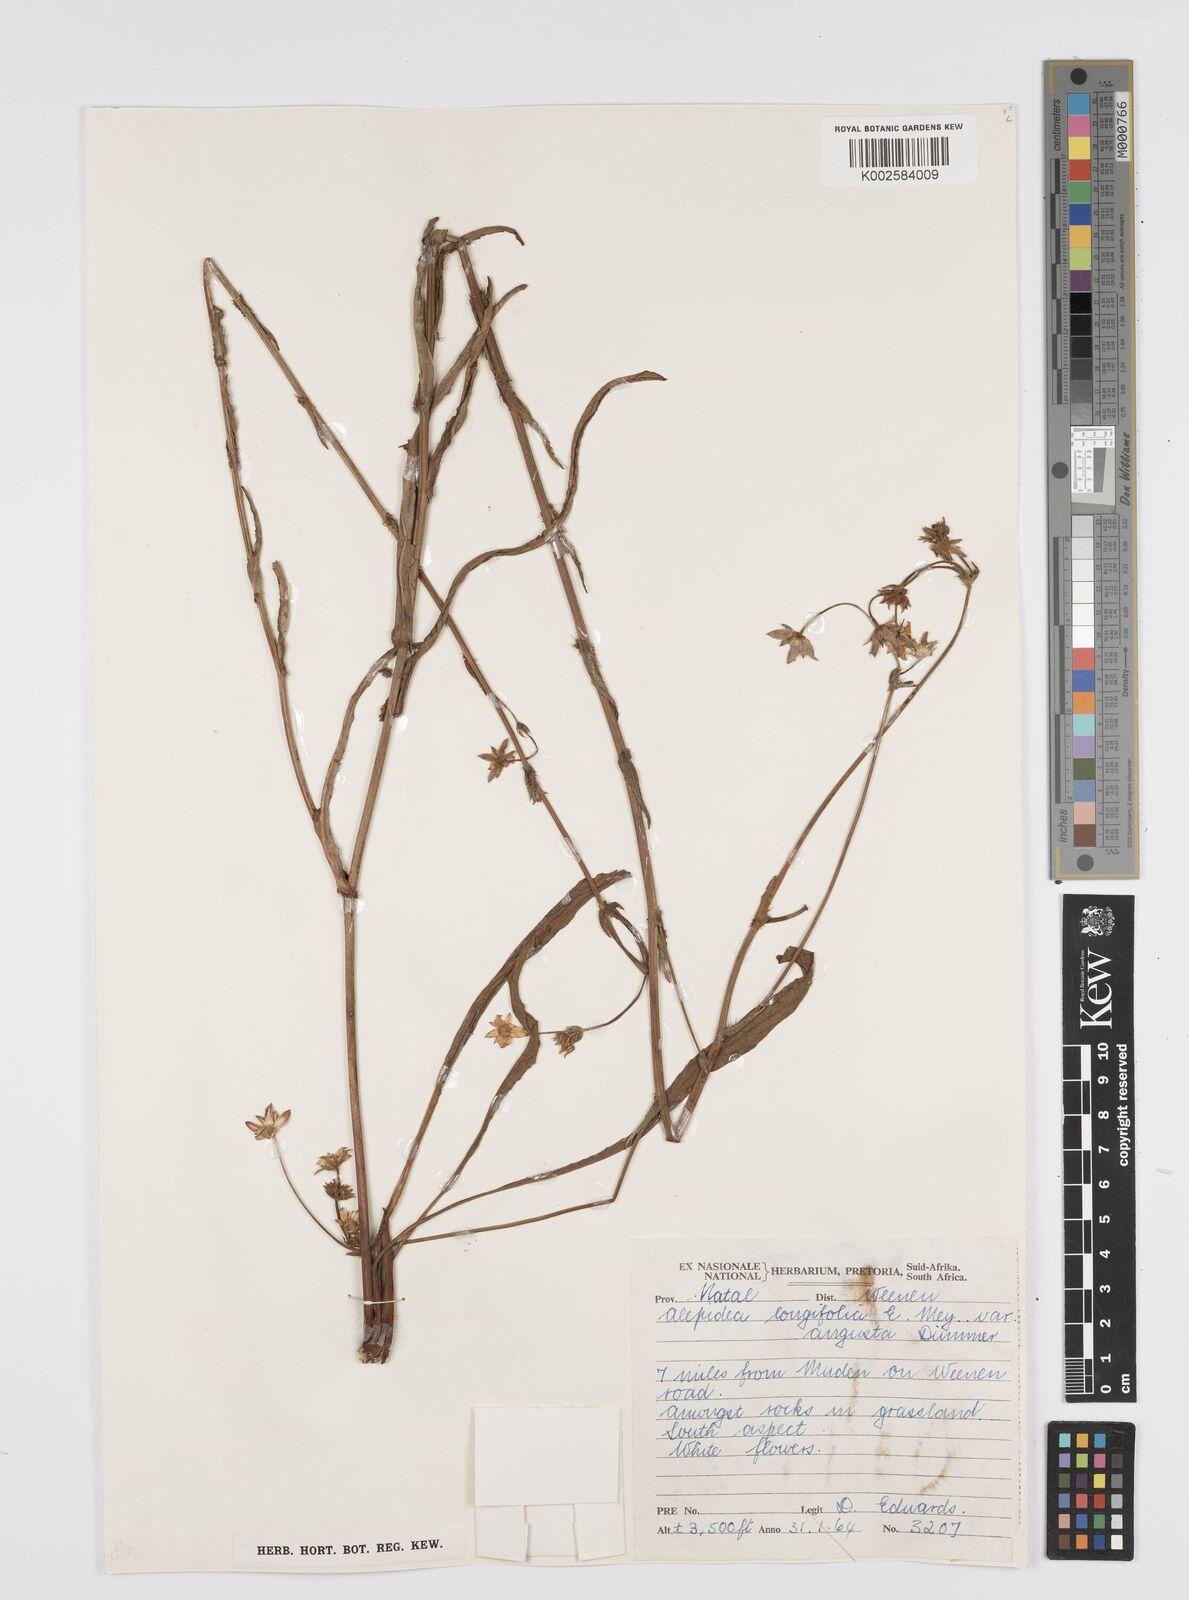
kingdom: Plantae
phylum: Tracheophyta
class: Magnoliopsida
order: Apiales
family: Apiaceae
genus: Alepidea
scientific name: Alepidea
